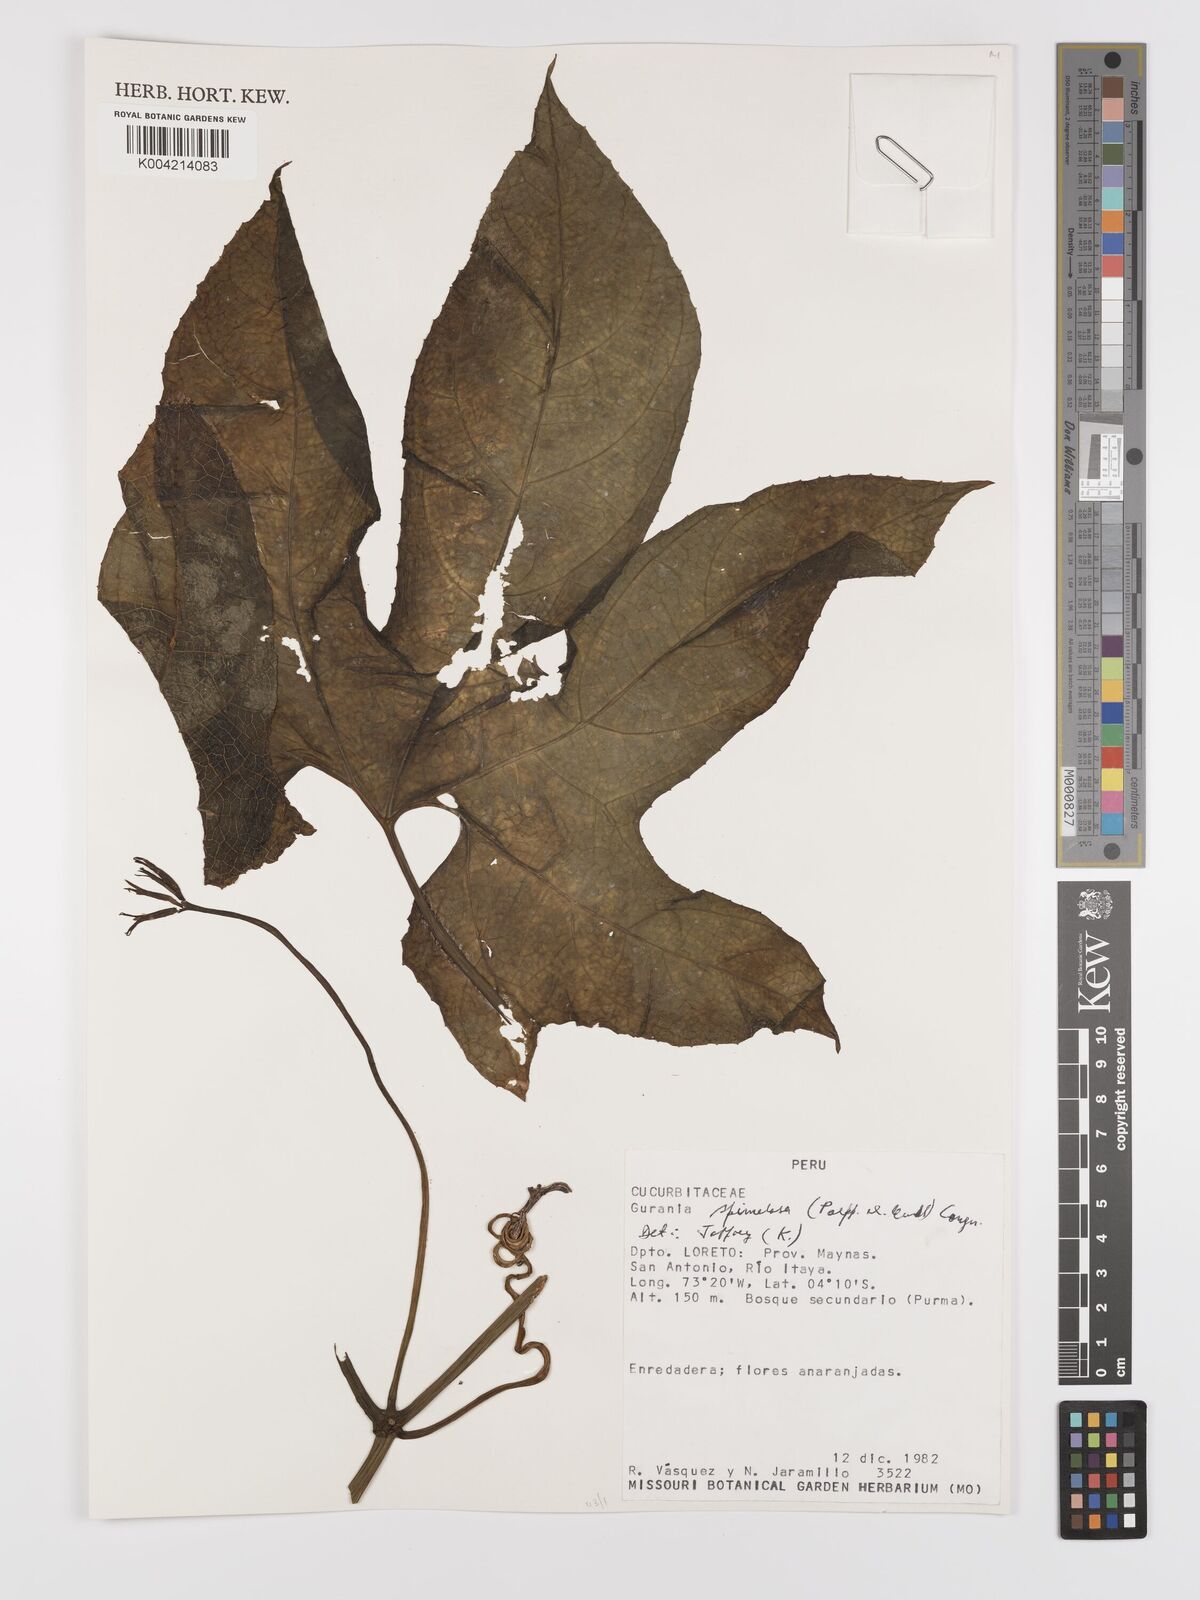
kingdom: Plantae
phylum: Tracheophyta
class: Magnoliopsida
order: Cucurbitales
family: Cucurbitaceae
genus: Gurania
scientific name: Gurania lobata
